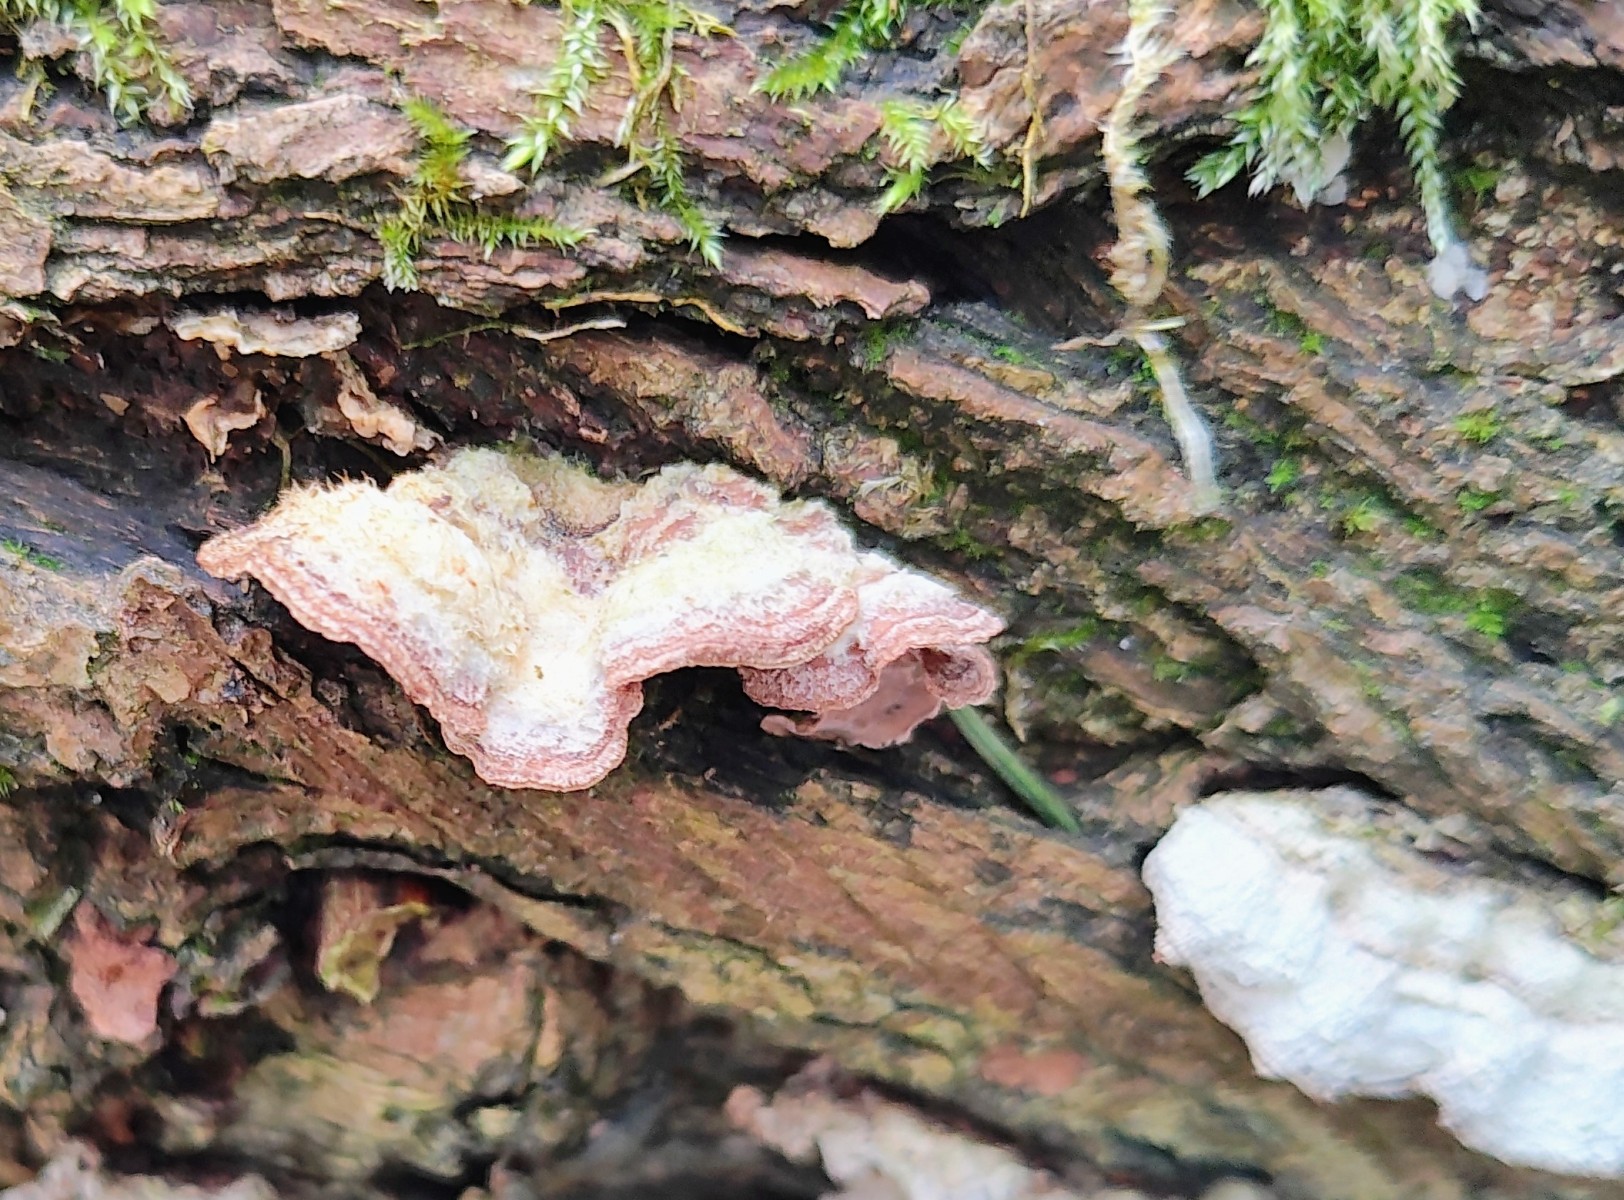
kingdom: Fungi
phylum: Basidiomycota
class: Agaricomycetes
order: Agaricales
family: Cyphellaceae
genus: Chondrostereum
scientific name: Chondrostereum purpureum
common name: purpurlædersvamp
